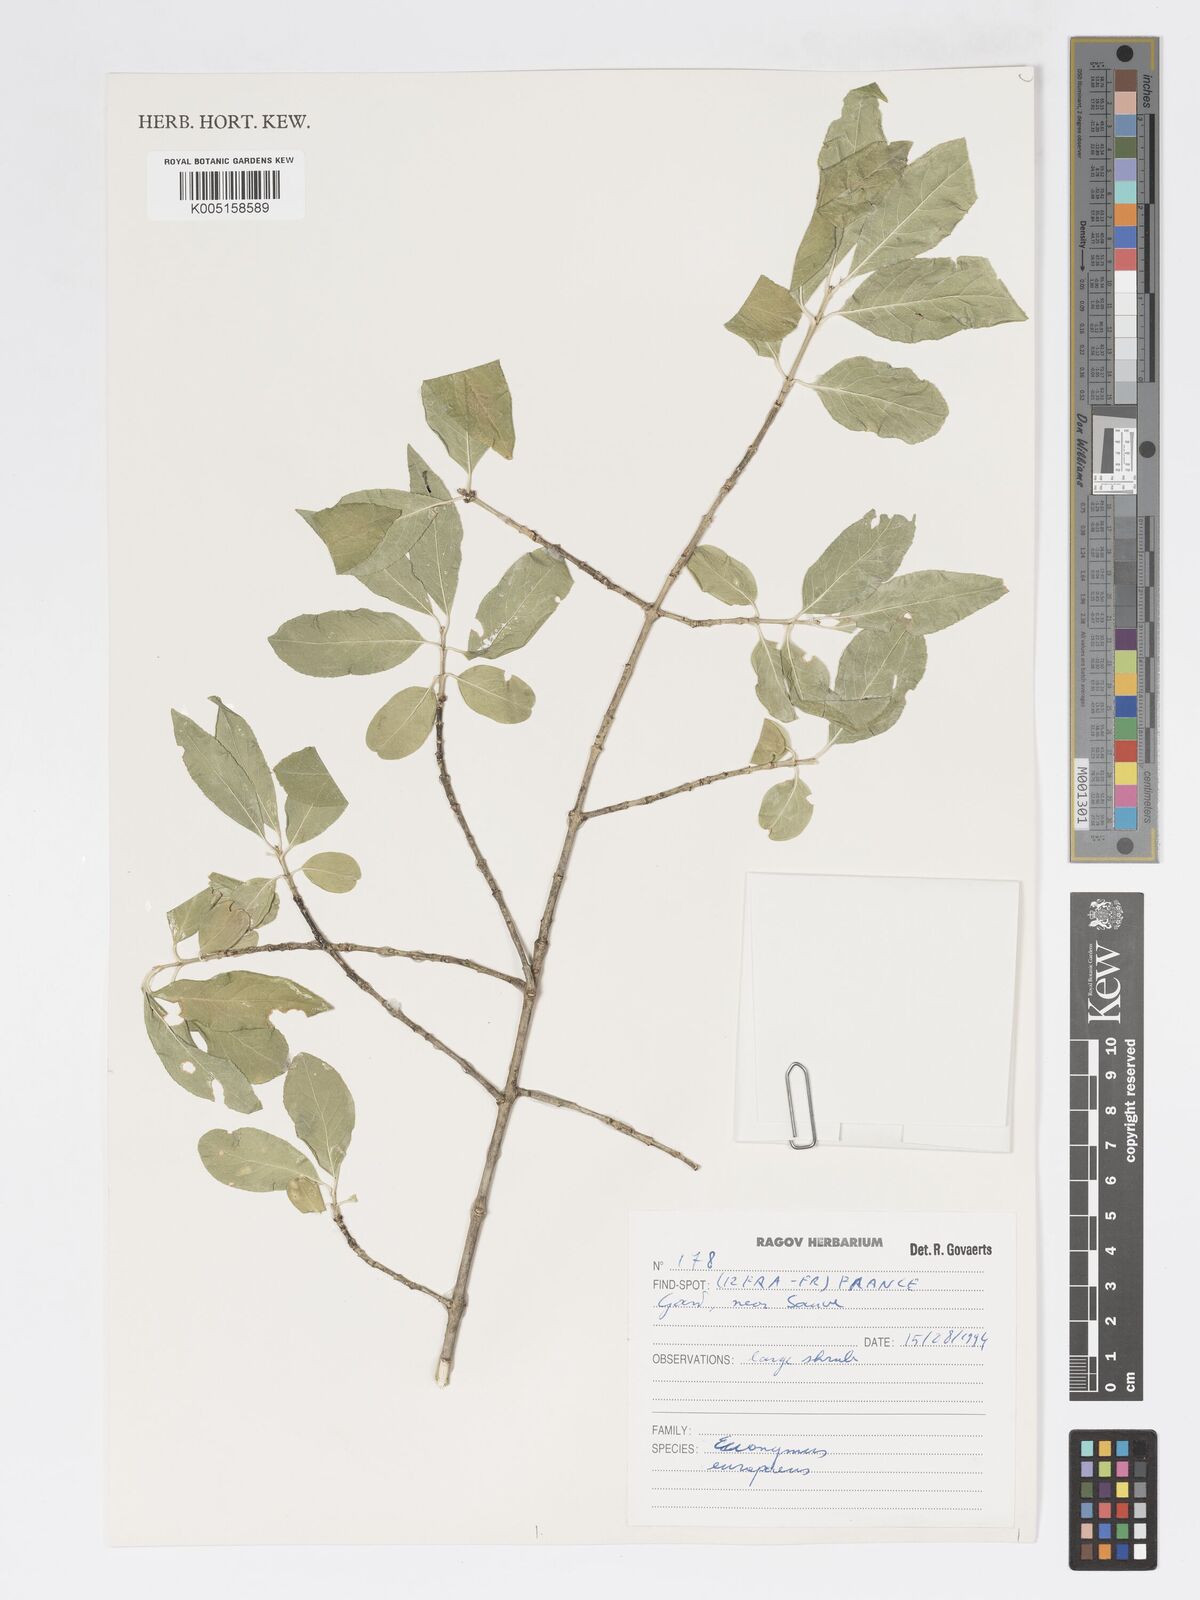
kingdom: Plantae
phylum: Tracheophyta
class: Magnoliopsida
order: Celastrales
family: Celastraceae
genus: Euonymus
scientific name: Euonymus europaeus
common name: Spindle
